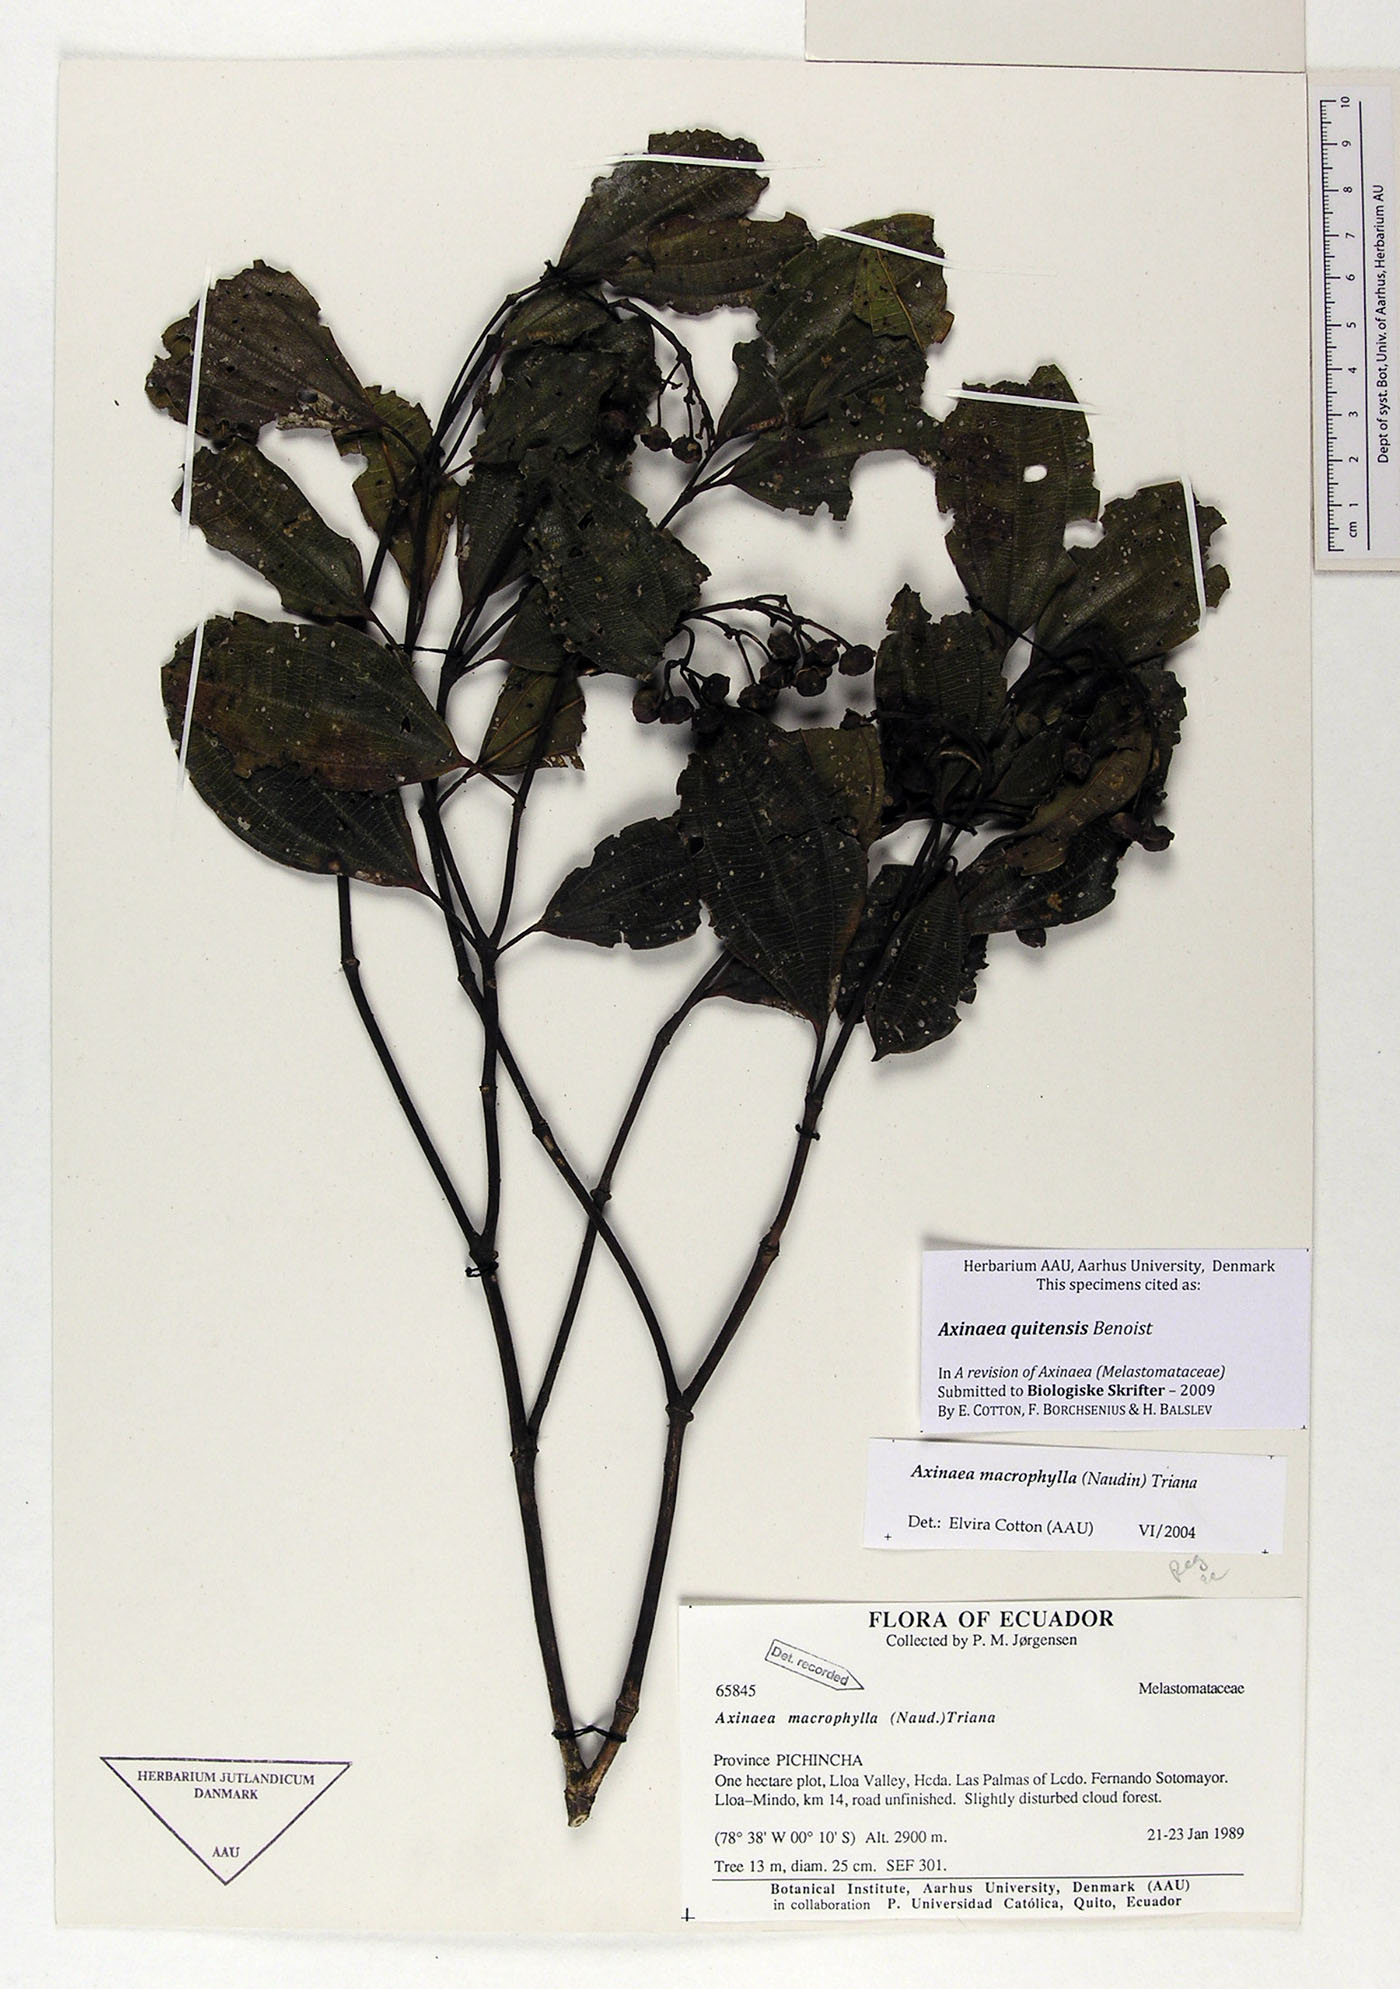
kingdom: Plantae
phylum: Tracheophyta
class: Magnoliopsida
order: Myrtales
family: Melastomataceae
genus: Axinaea
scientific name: Axinaea quitensis
